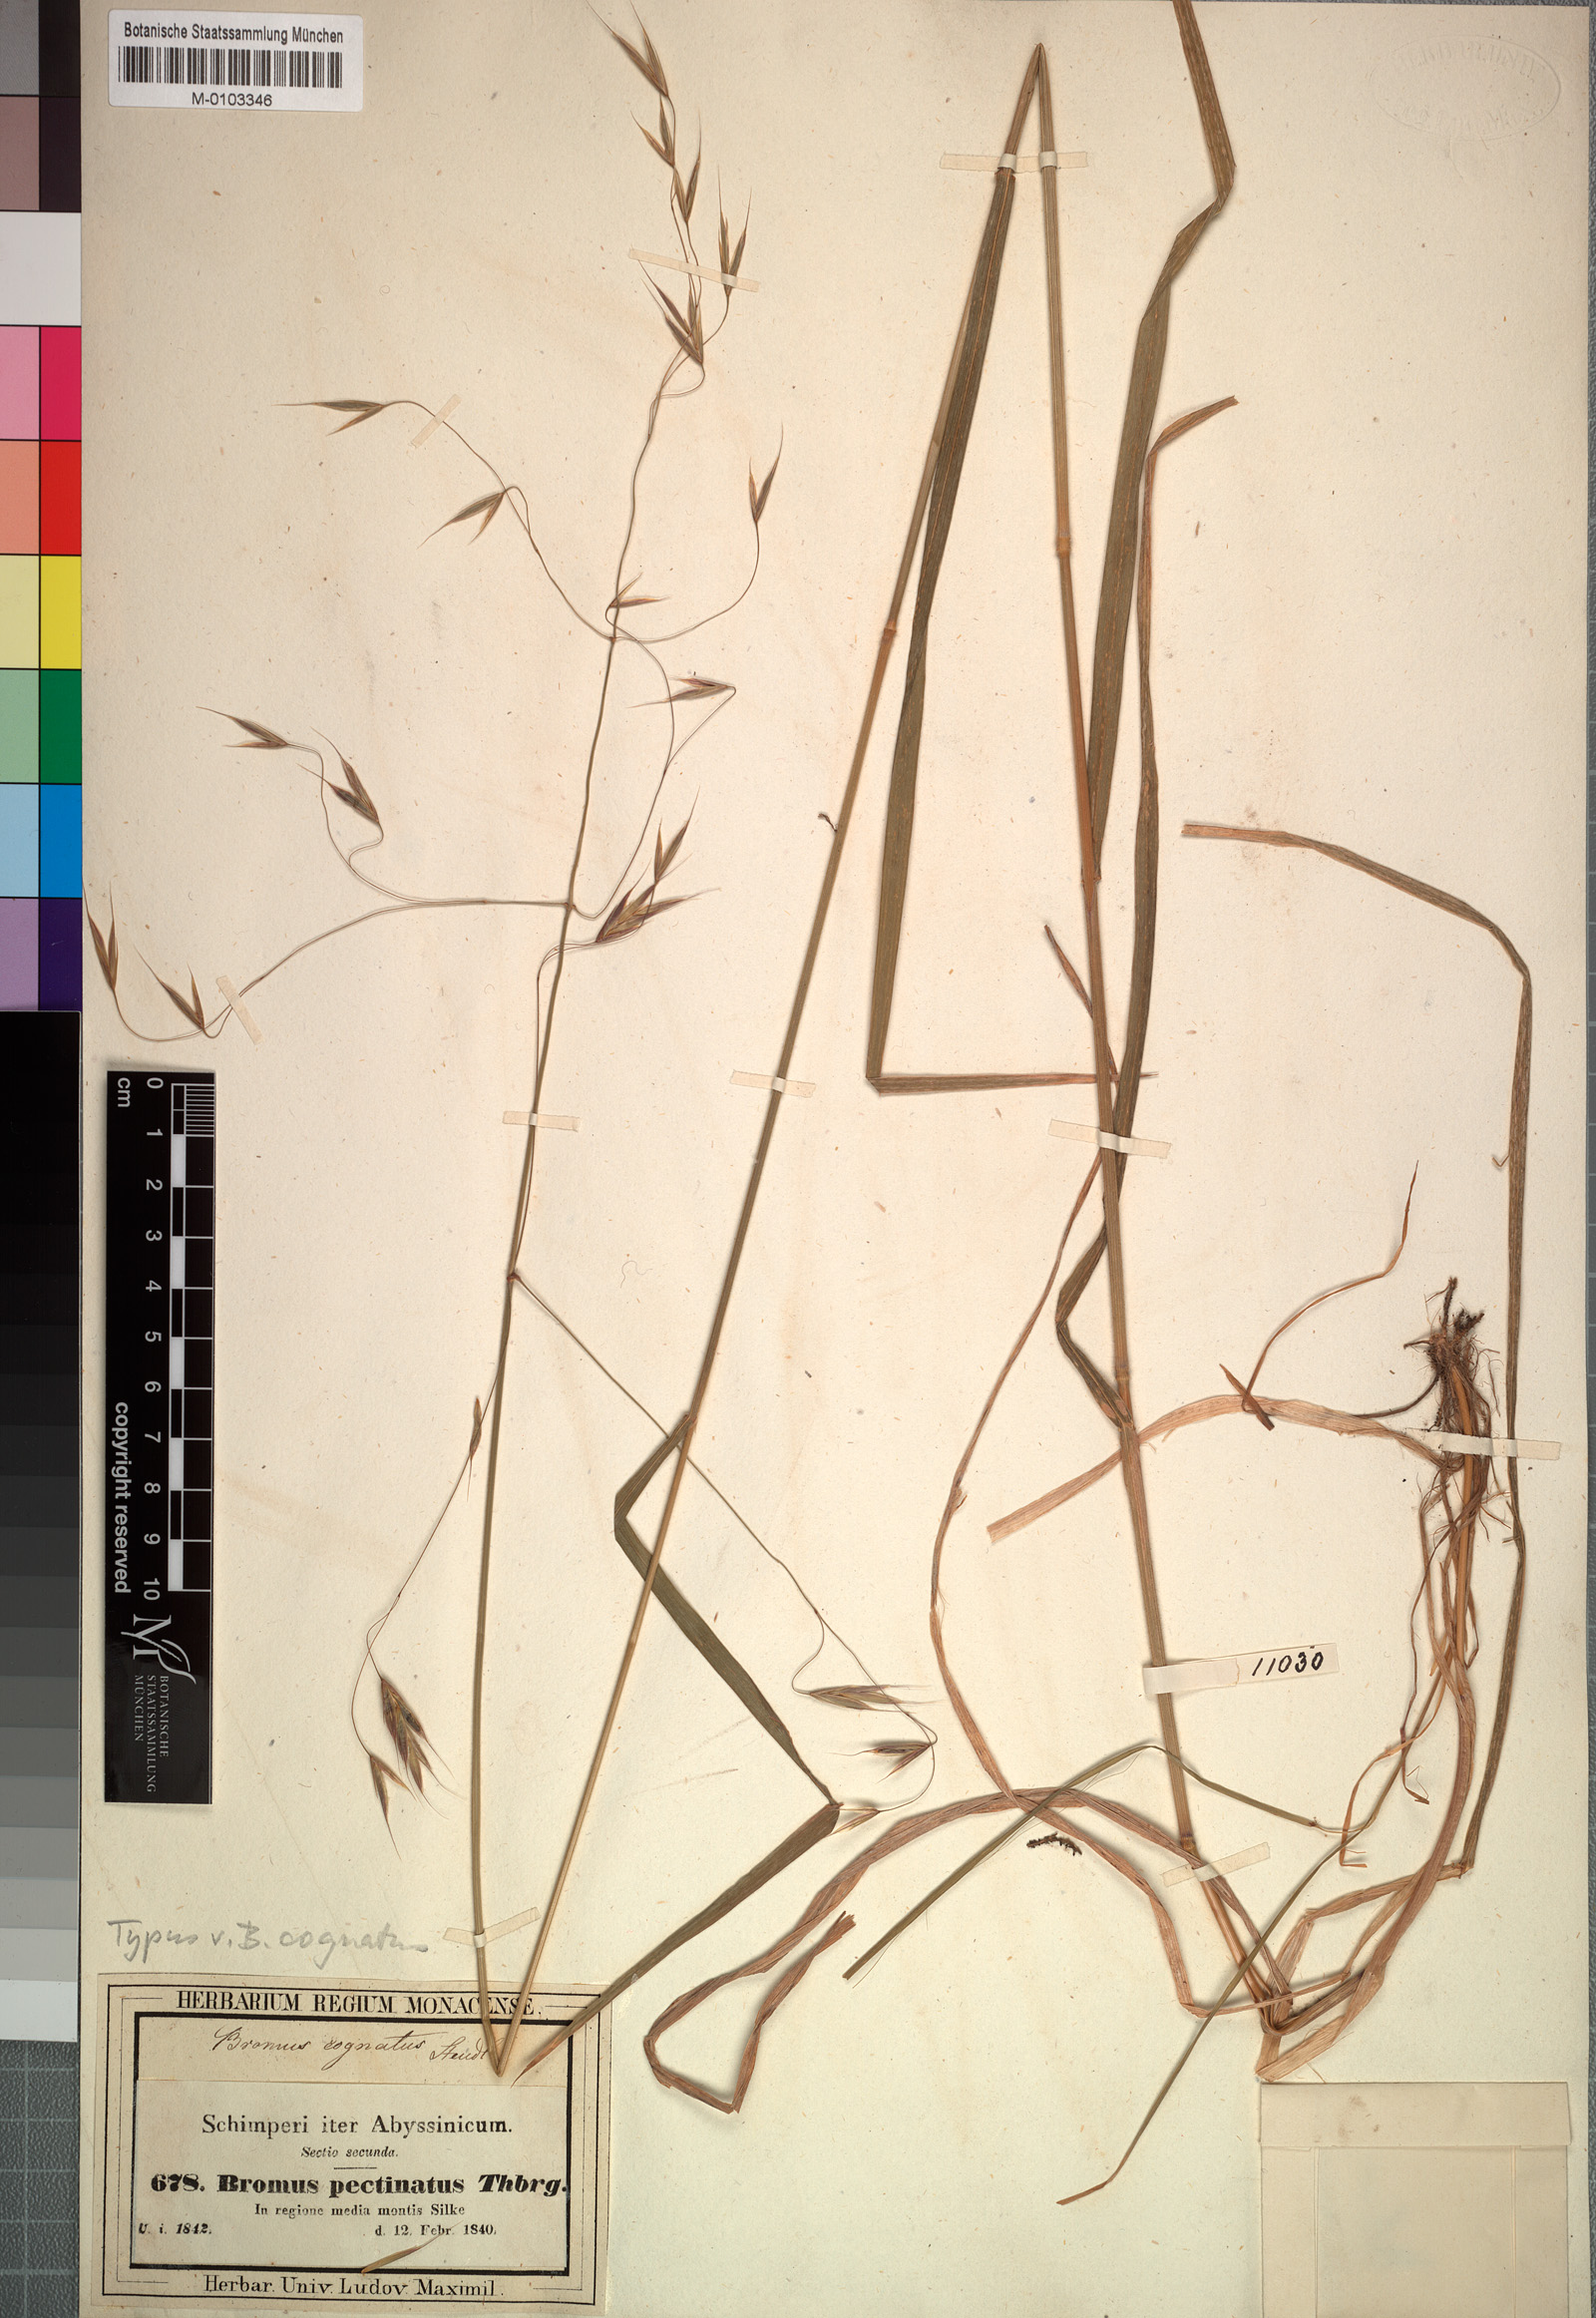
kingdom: Plantae
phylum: Tracheophyta
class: Liliopsida
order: Poales
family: Poaceae
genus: Bromus
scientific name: Bromus leptoclados
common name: Mountain bromegrass
